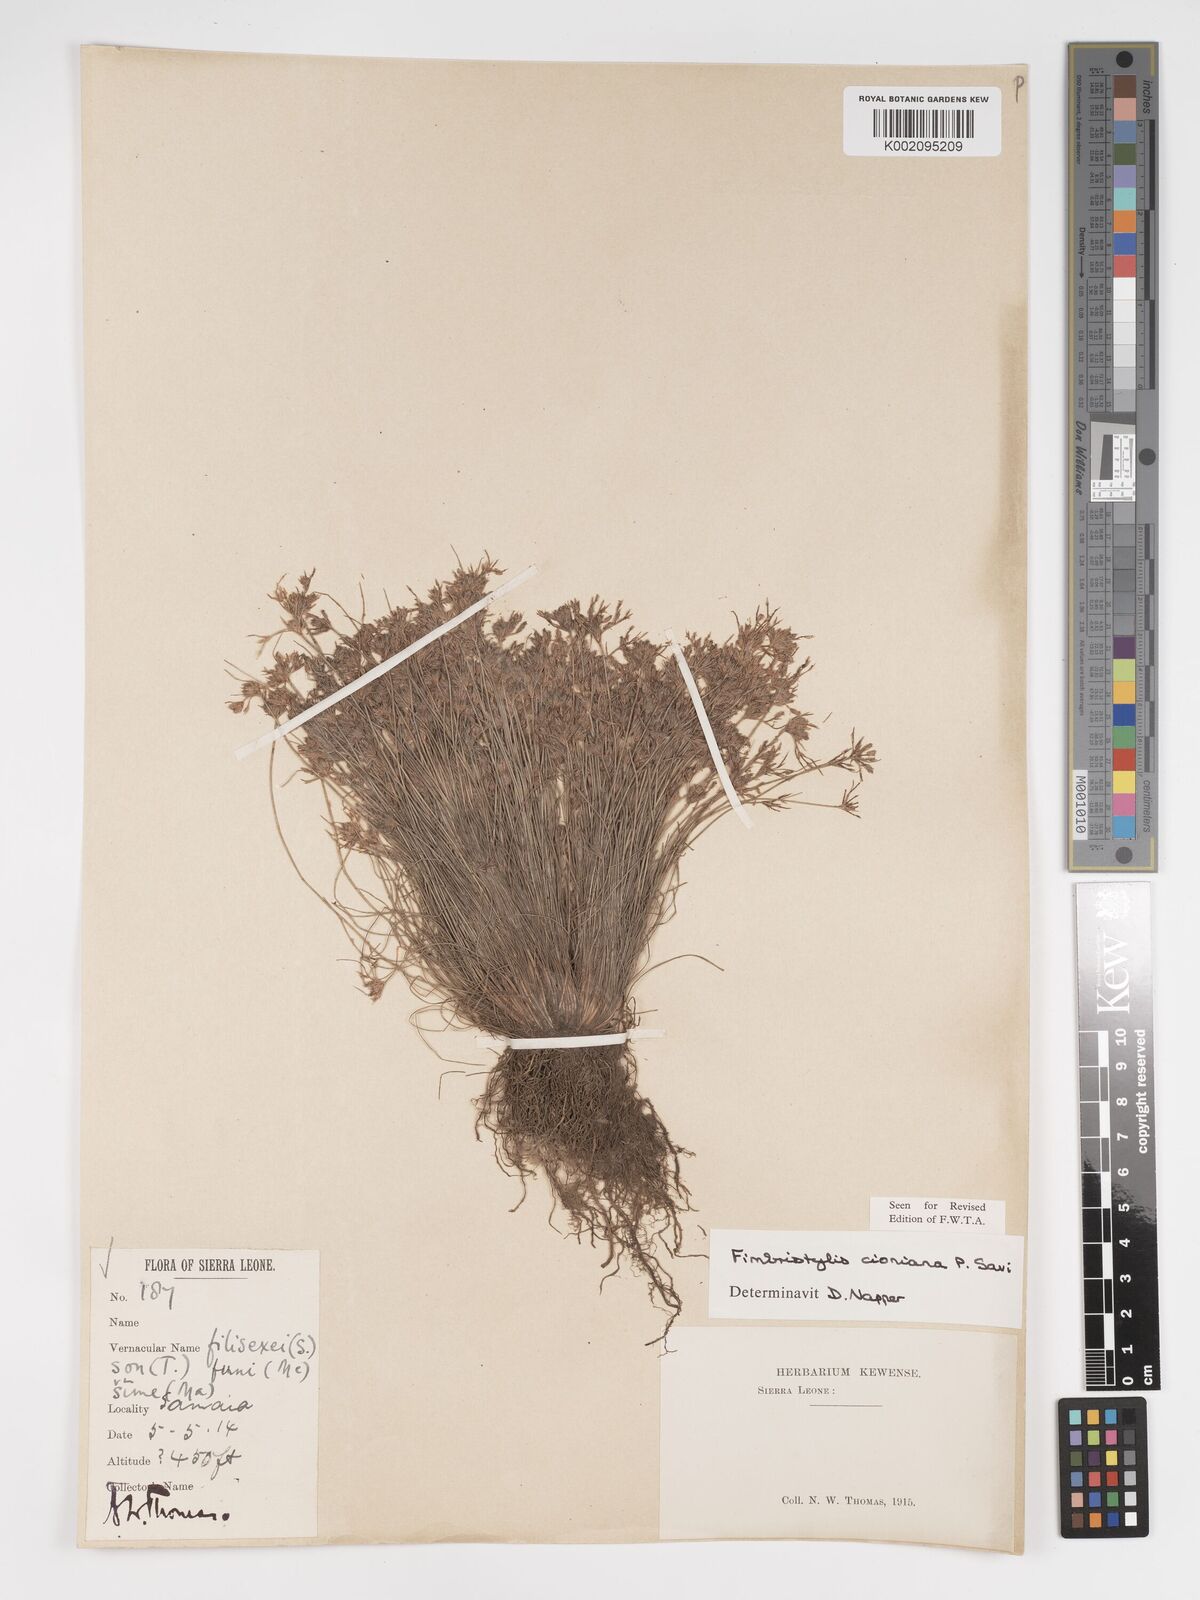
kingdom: Plantae
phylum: Tracheophyta
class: Liliopsida
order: Poales
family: Cyperaceae
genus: Bulbostylis
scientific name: Bulbostylis cioniana
